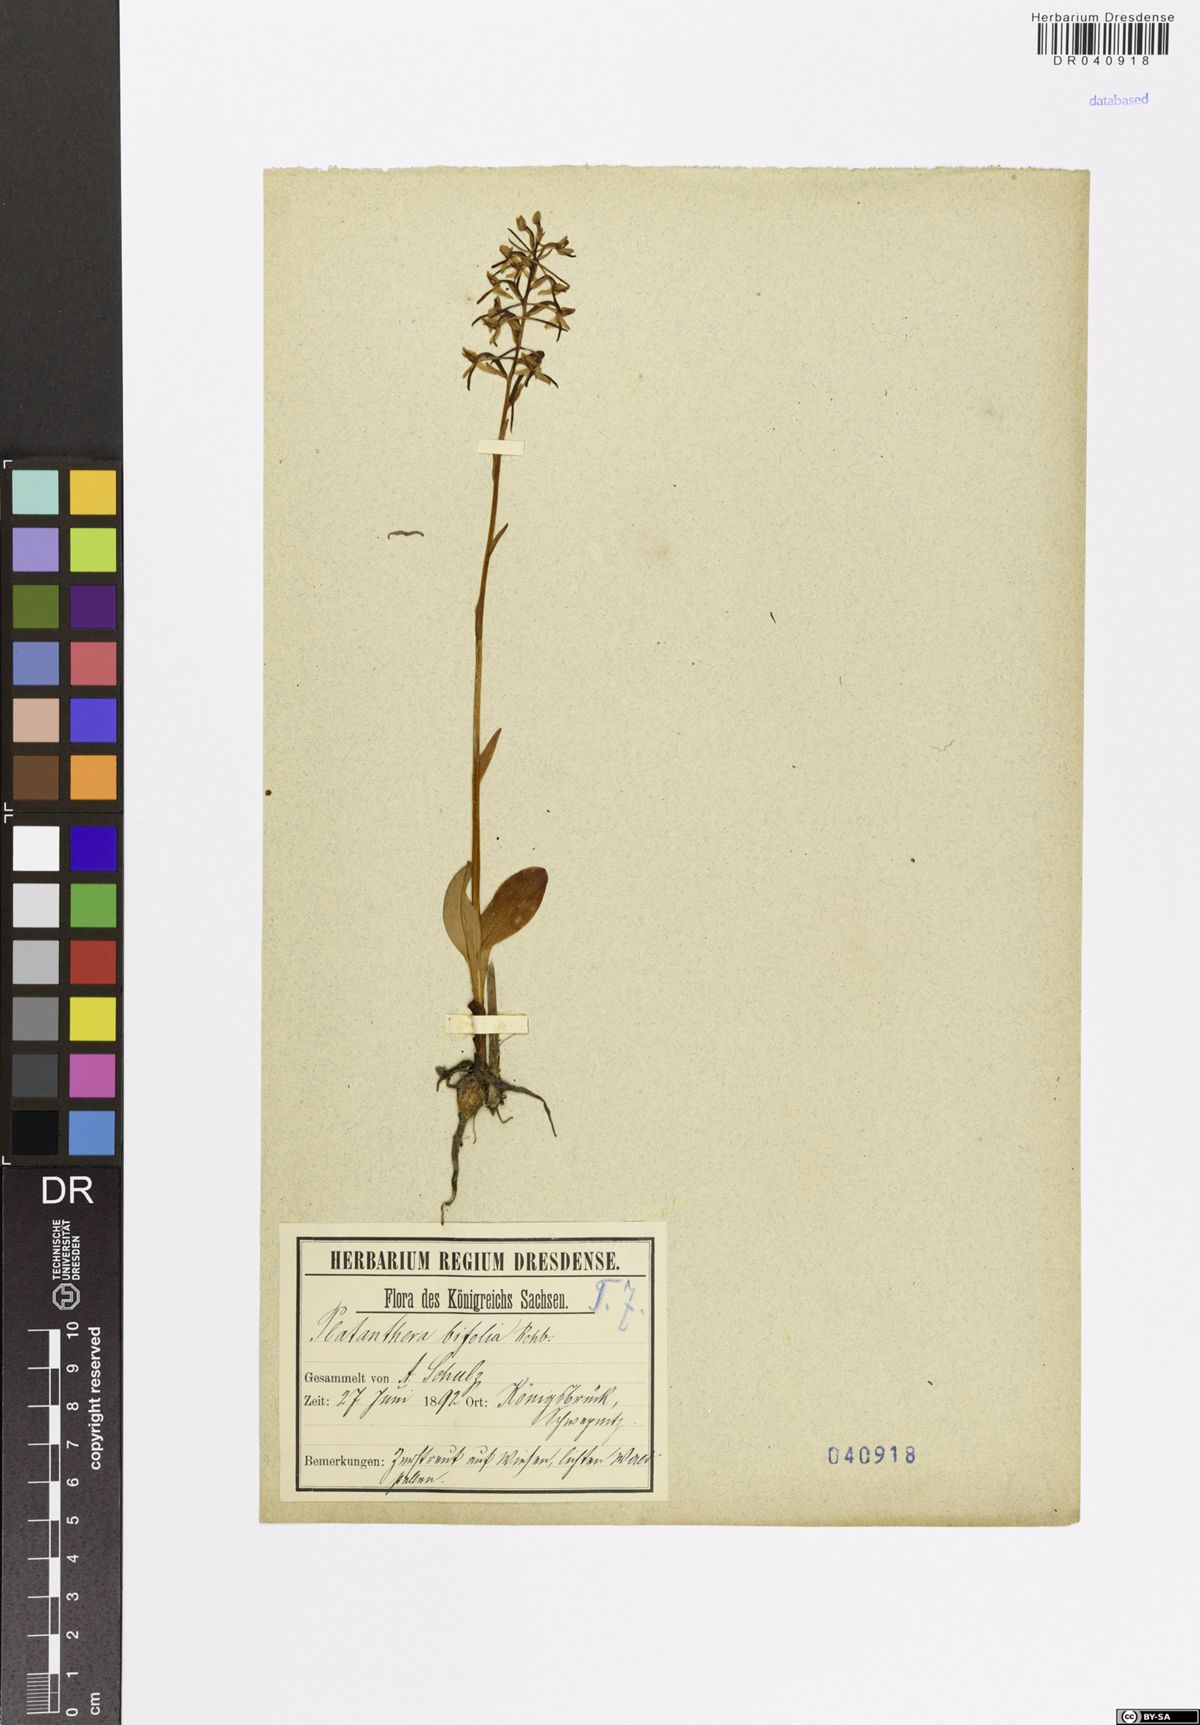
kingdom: Plantae
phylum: Tracheophyta
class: Liliopsida
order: Asparagales
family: Orchidaceae
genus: Platanthera
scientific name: Platanthera bifolia
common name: Lesser butterfly-orchid
